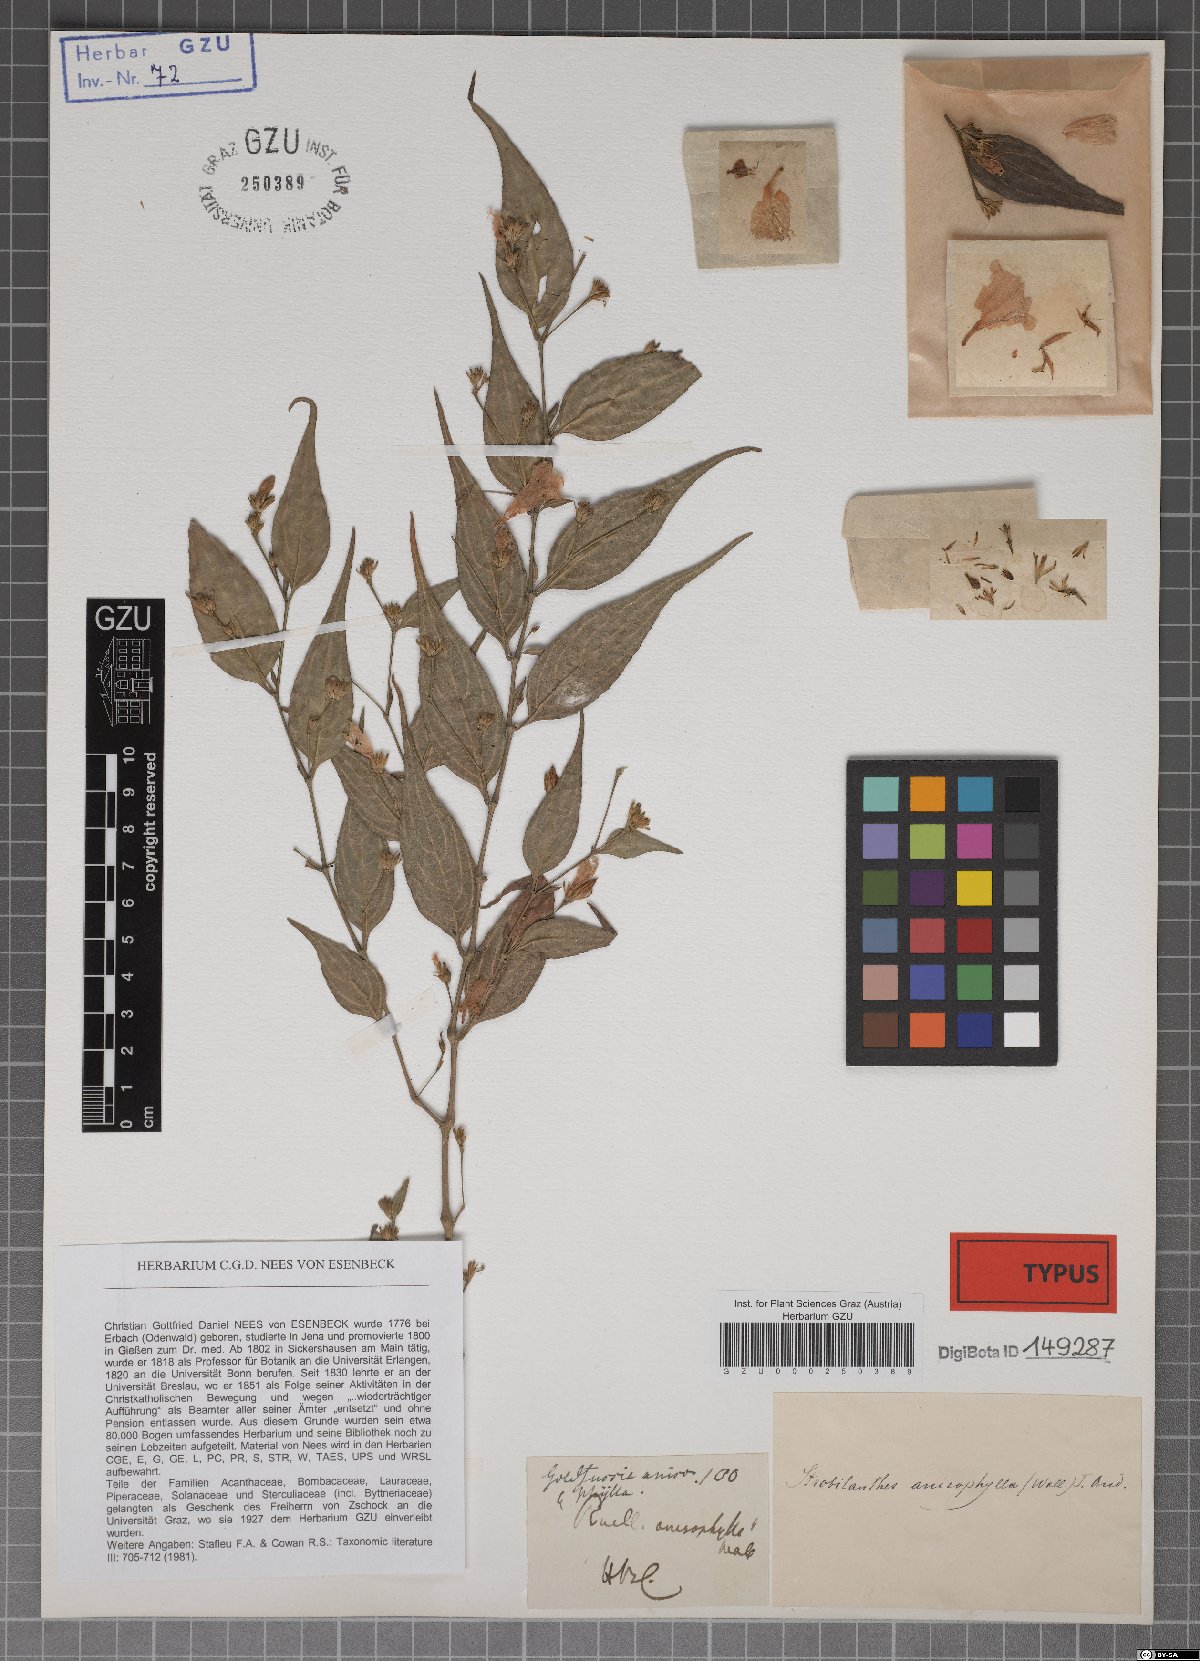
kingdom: Plantae
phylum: Tracheophyta
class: Magnoliopsida
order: Lamiales
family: Acanthaceae
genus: Strobilanthes
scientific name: Strobilanthes anisophylla
